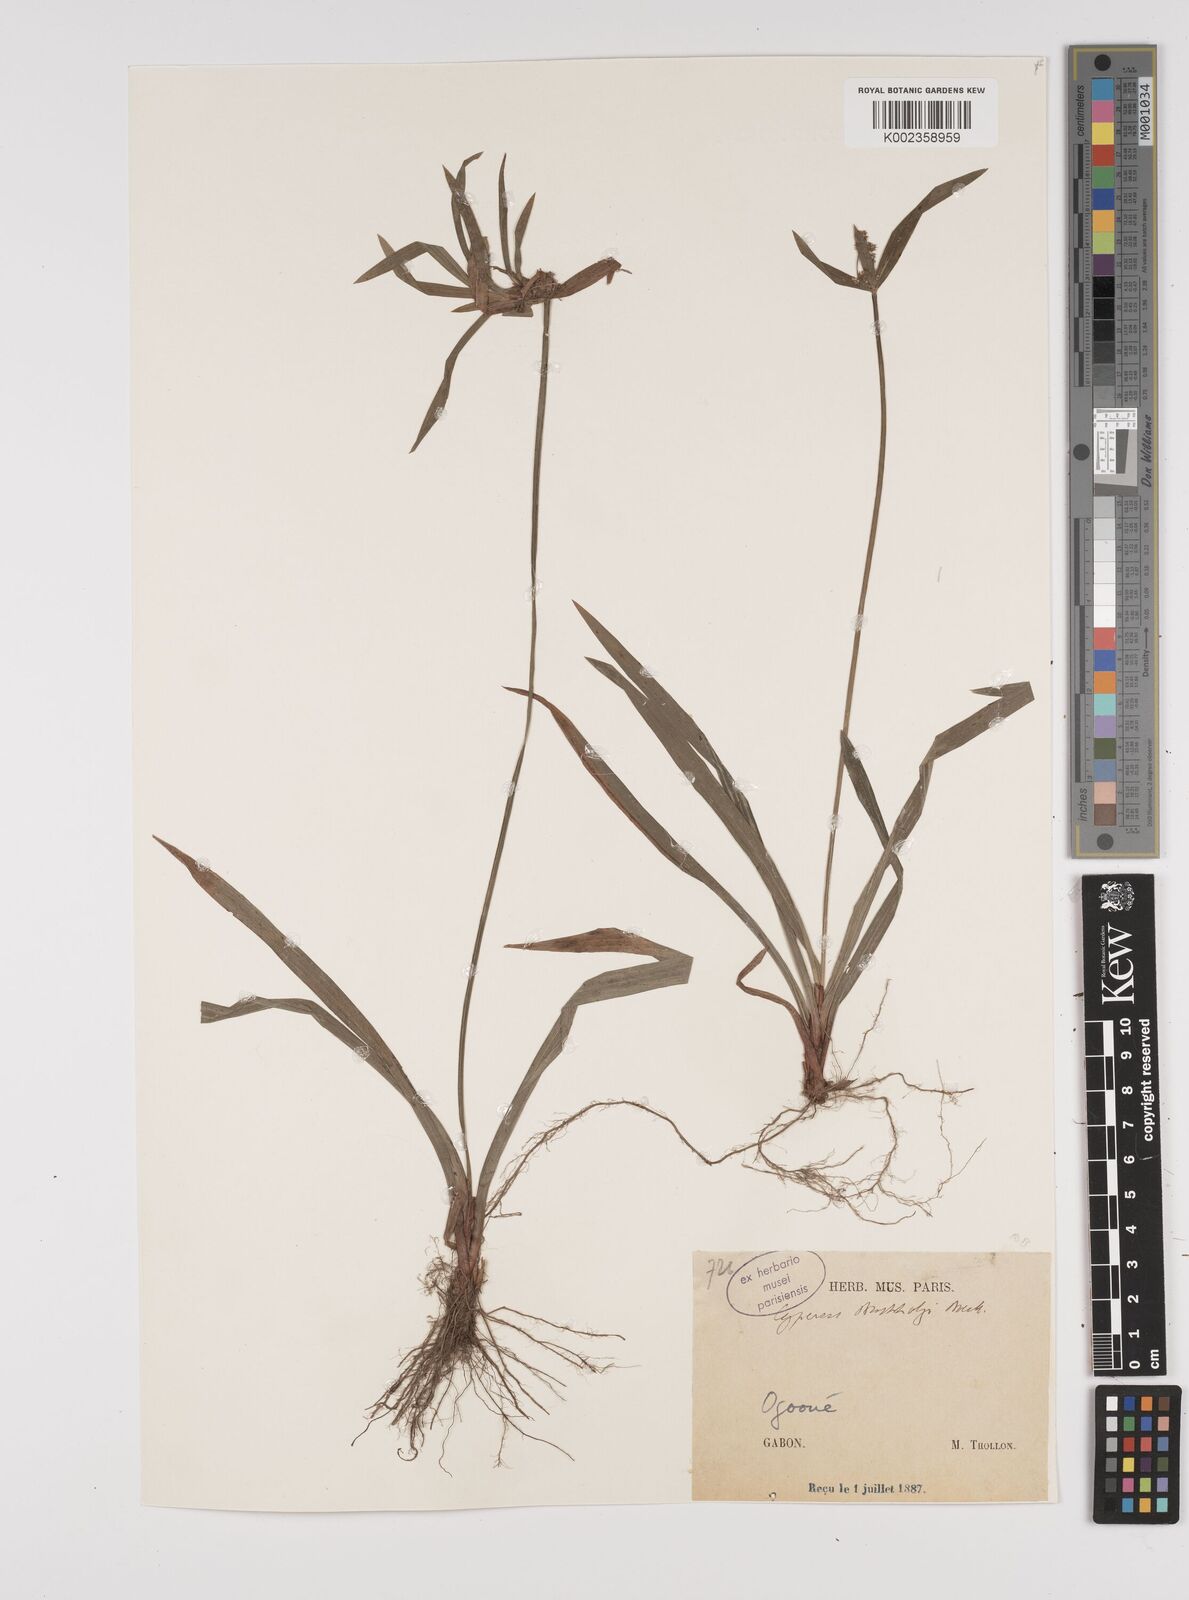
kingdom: Plantae
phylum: Tracheophyta
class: Liliopsida
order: Poales
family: Cyperaceae
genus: Cyperus
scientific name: Cyperus diffusus
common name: Dwarf umbrella grass
